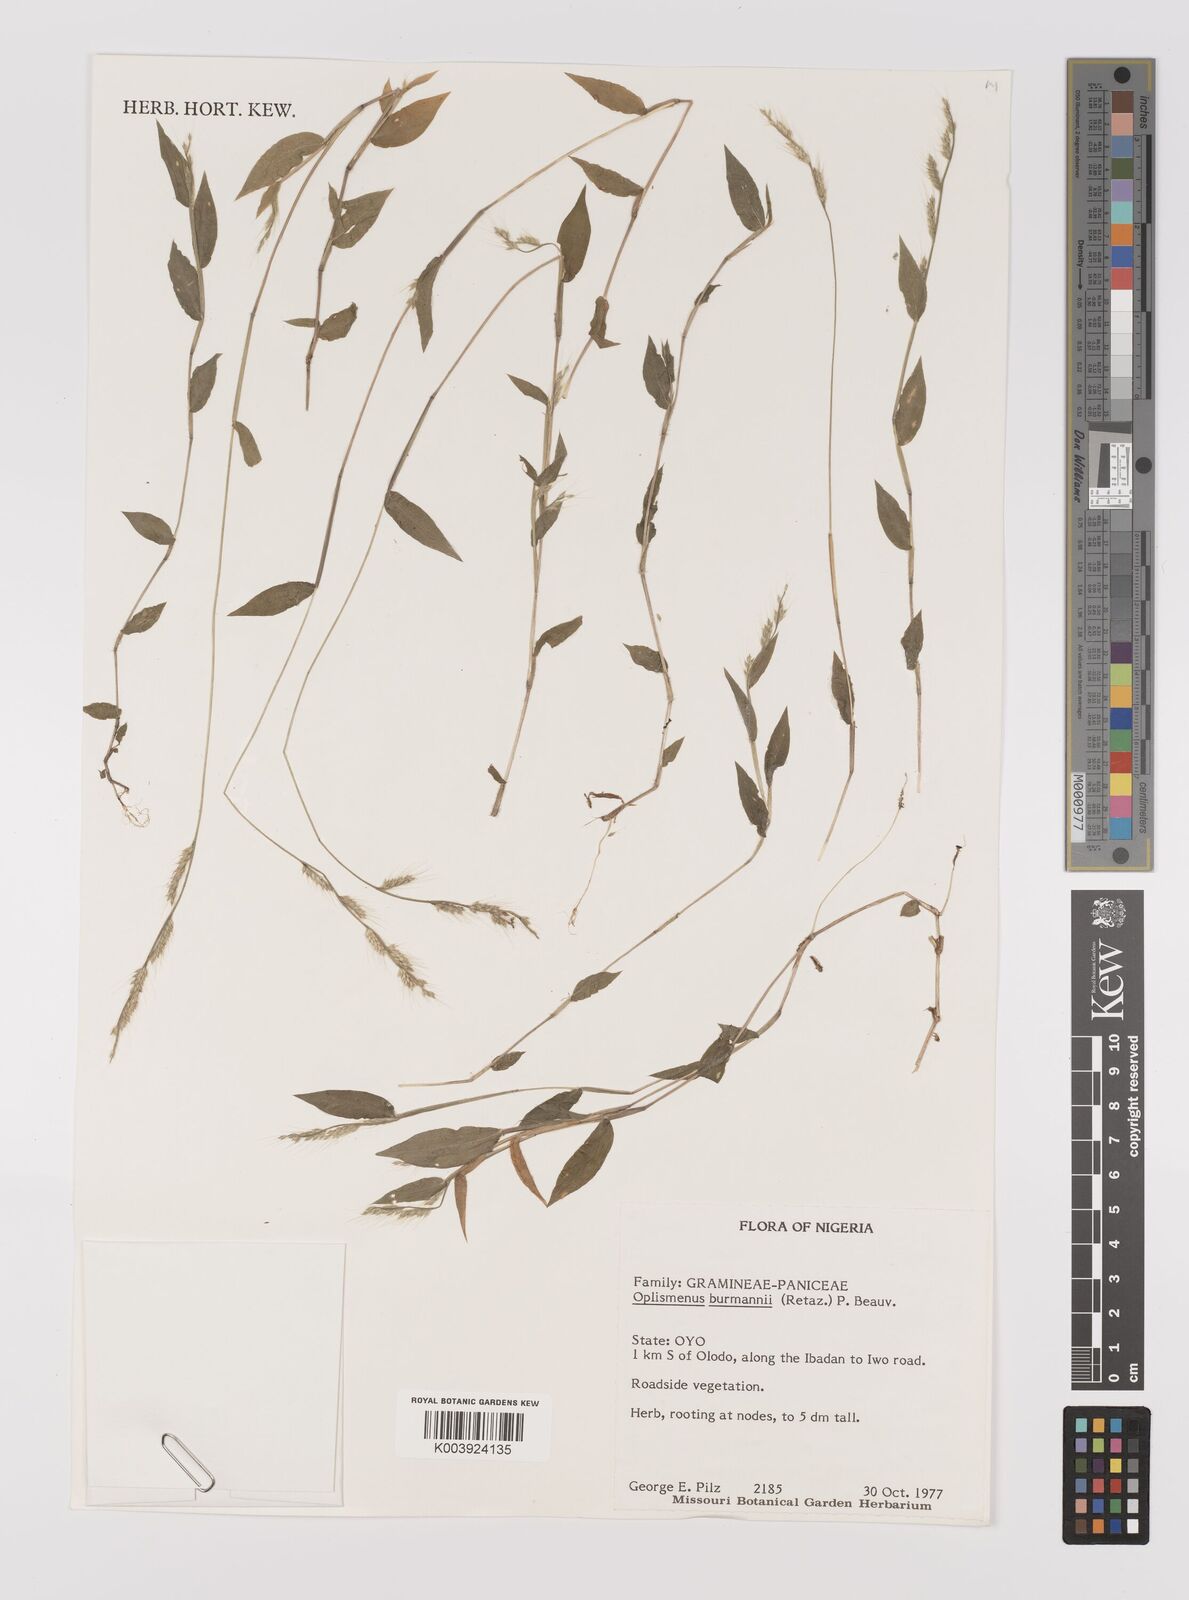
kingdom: Plantae
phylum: Tracheophyta
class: Liliopsida
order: Poales
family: Poaceae
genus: Oplismenus
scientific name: Oplismenus burmanni
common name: Burmann's basketgrass
